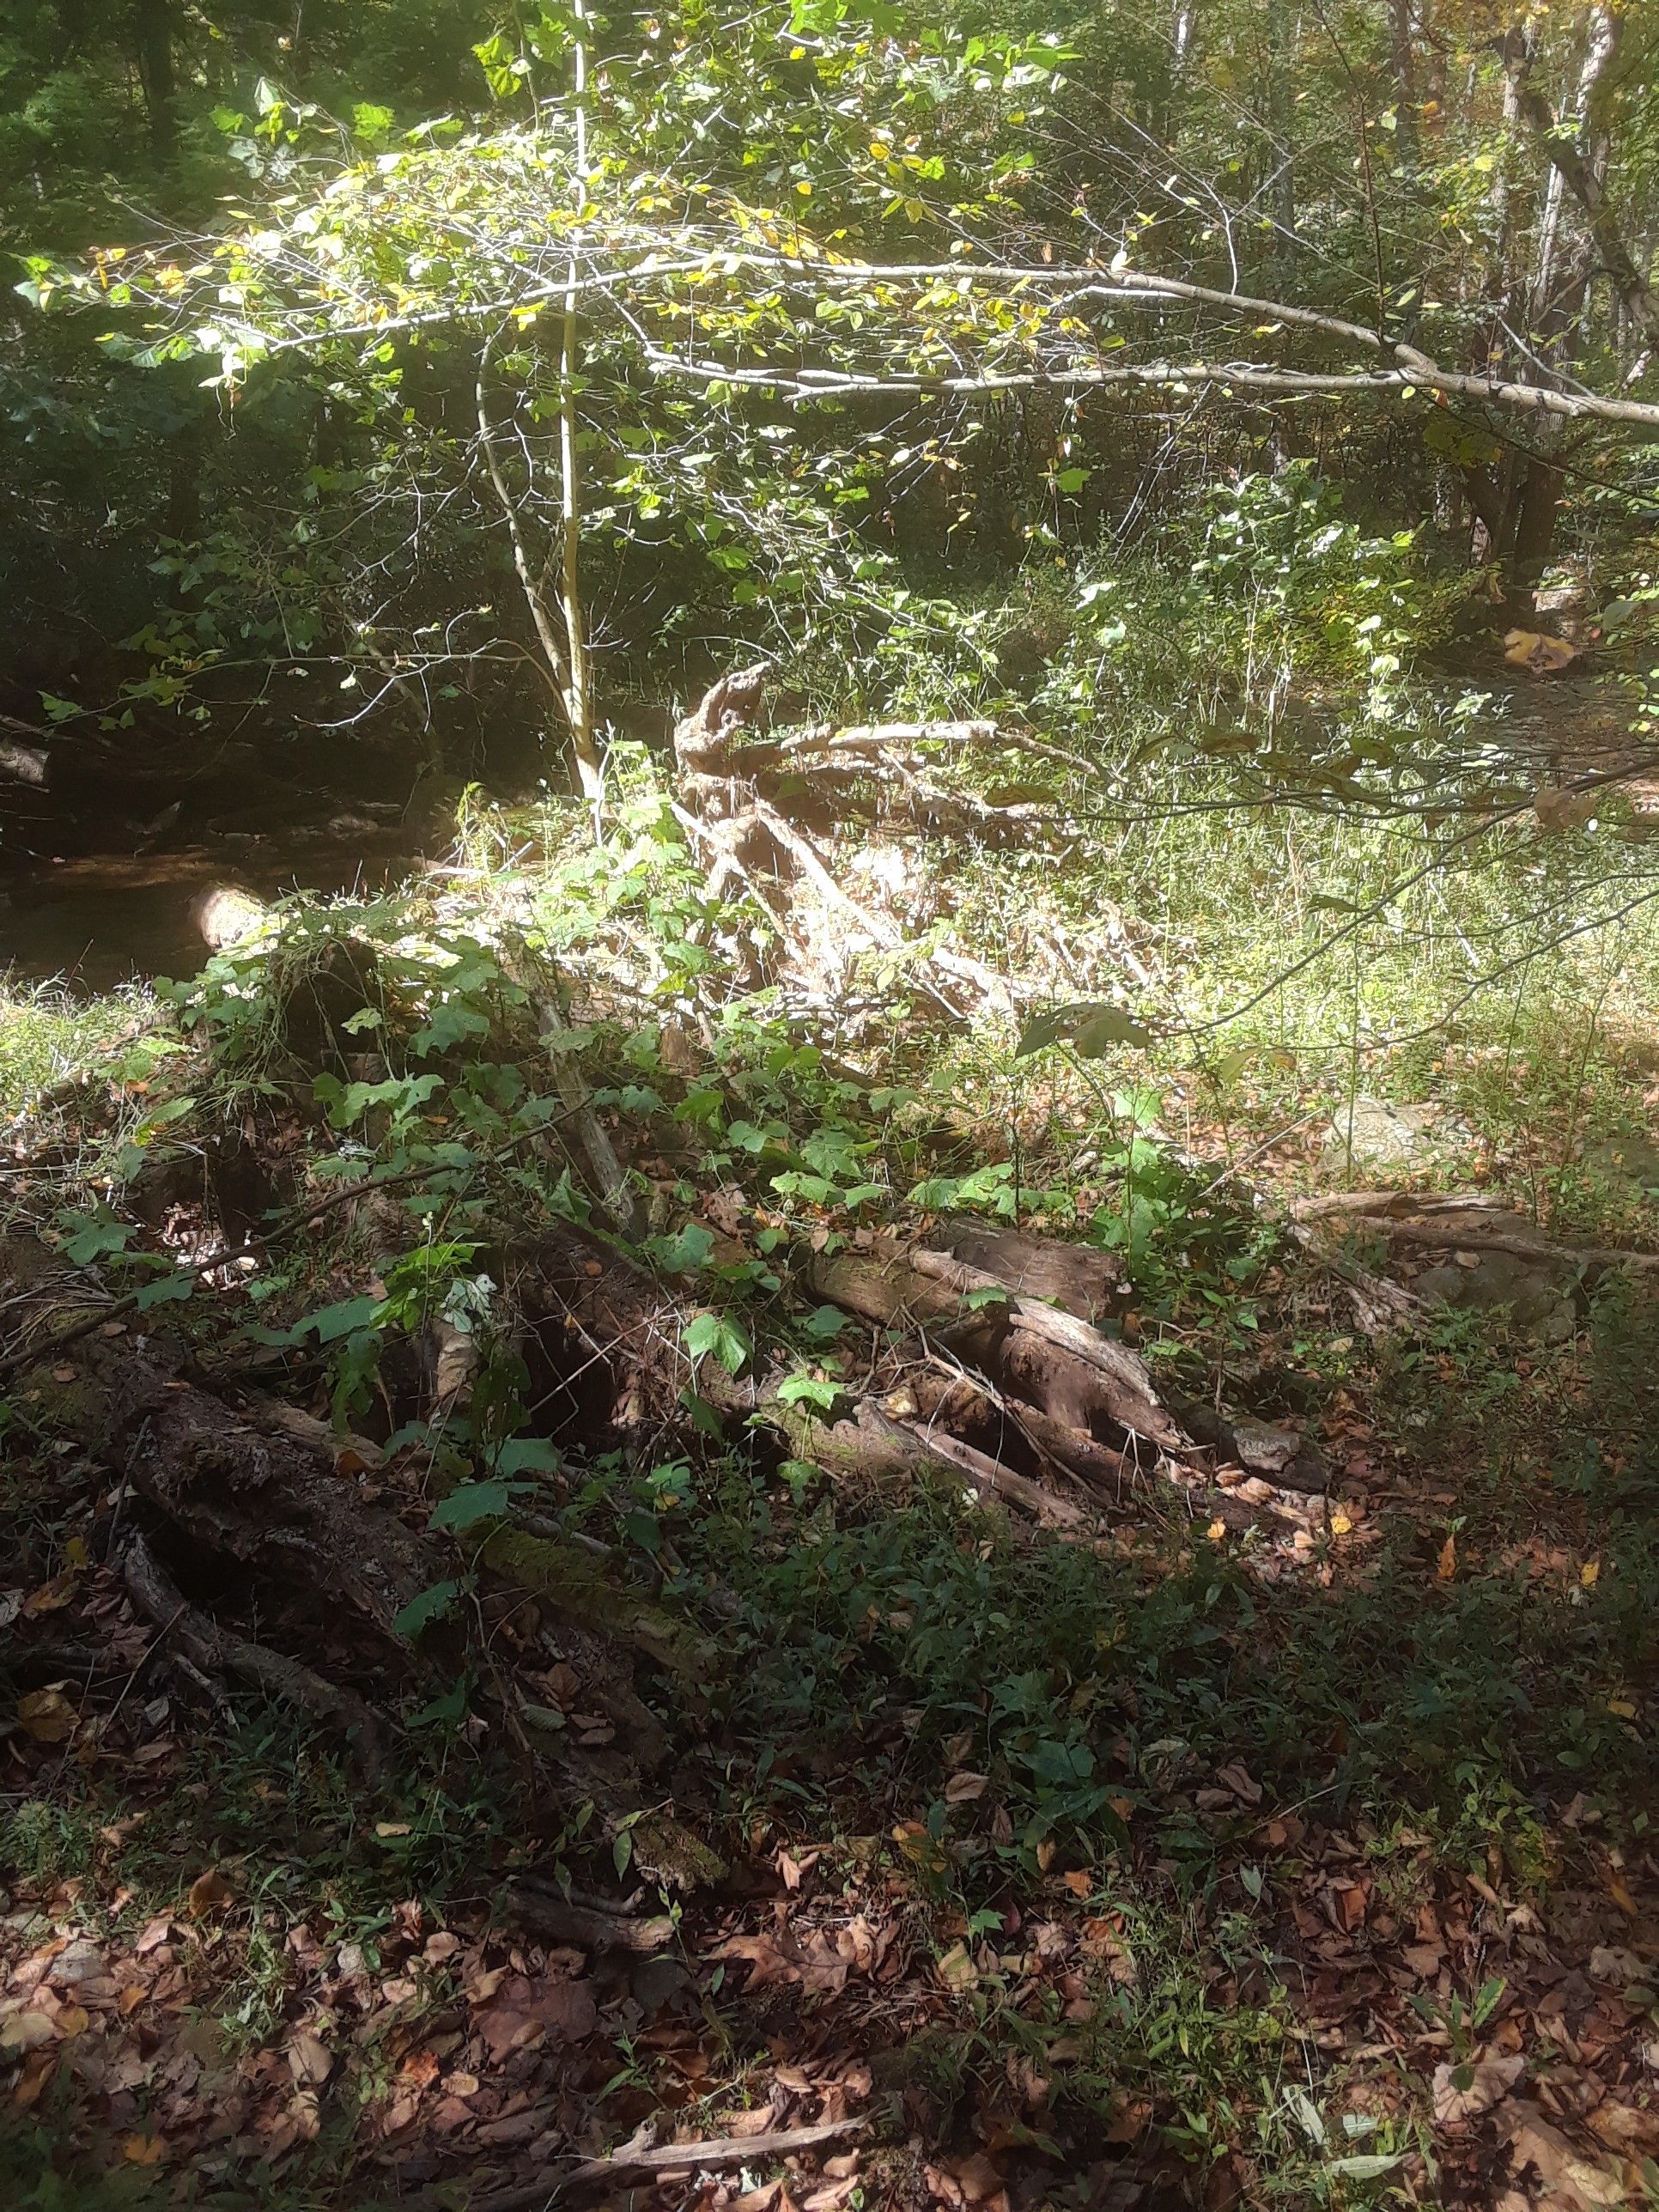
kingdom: Plantae
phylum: Tracheophyta
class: Magnoliopsida
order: Cucurbitales
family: Cucurbitaceae
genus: Sicyos
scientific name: Sicyos angulatus
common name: Bur-cucumber
